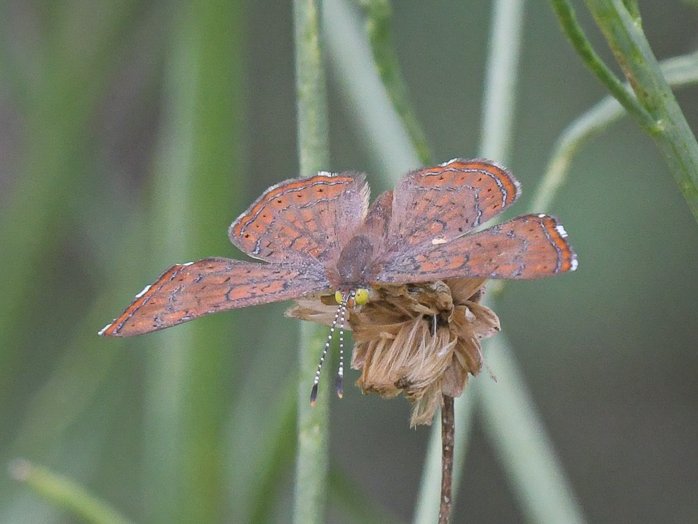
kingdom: Animalia
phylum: Arthropoda
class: Insecta
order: Lepidoptera
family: Lycaenidae
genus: Emesis
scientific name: Emesis wrighti
